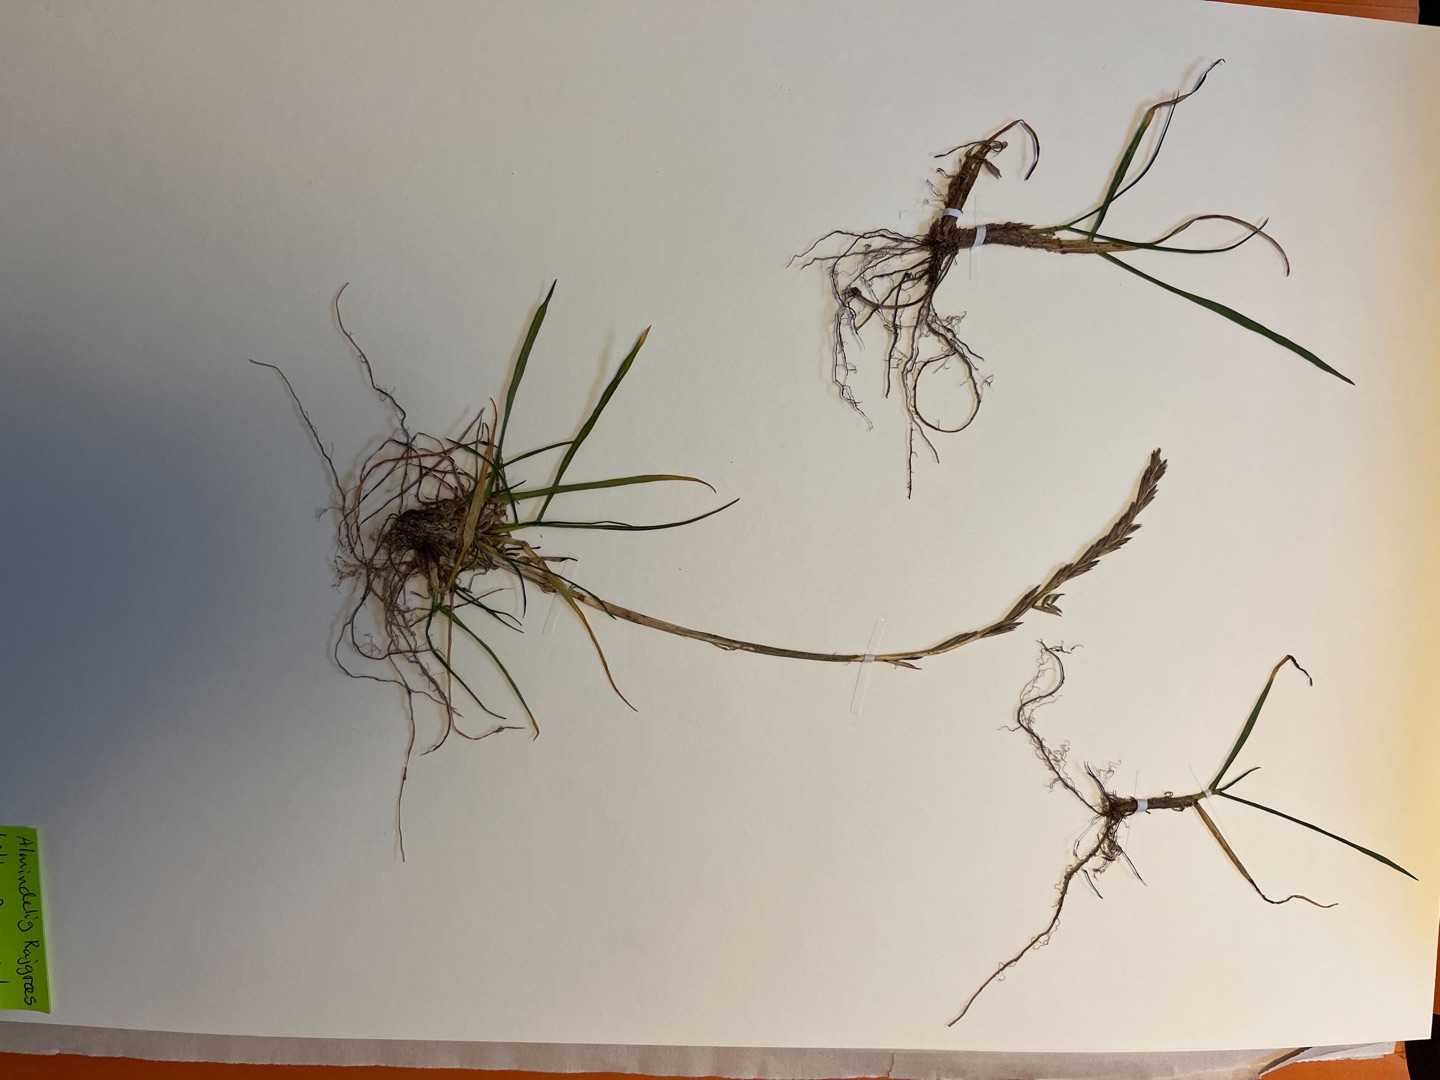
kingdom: Plantae
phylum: Tracheophyta
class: Liliopsida
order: Poales
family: Poaceae
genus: Lolium
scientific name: Lolium perenne
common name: Almindelig rajgræs
